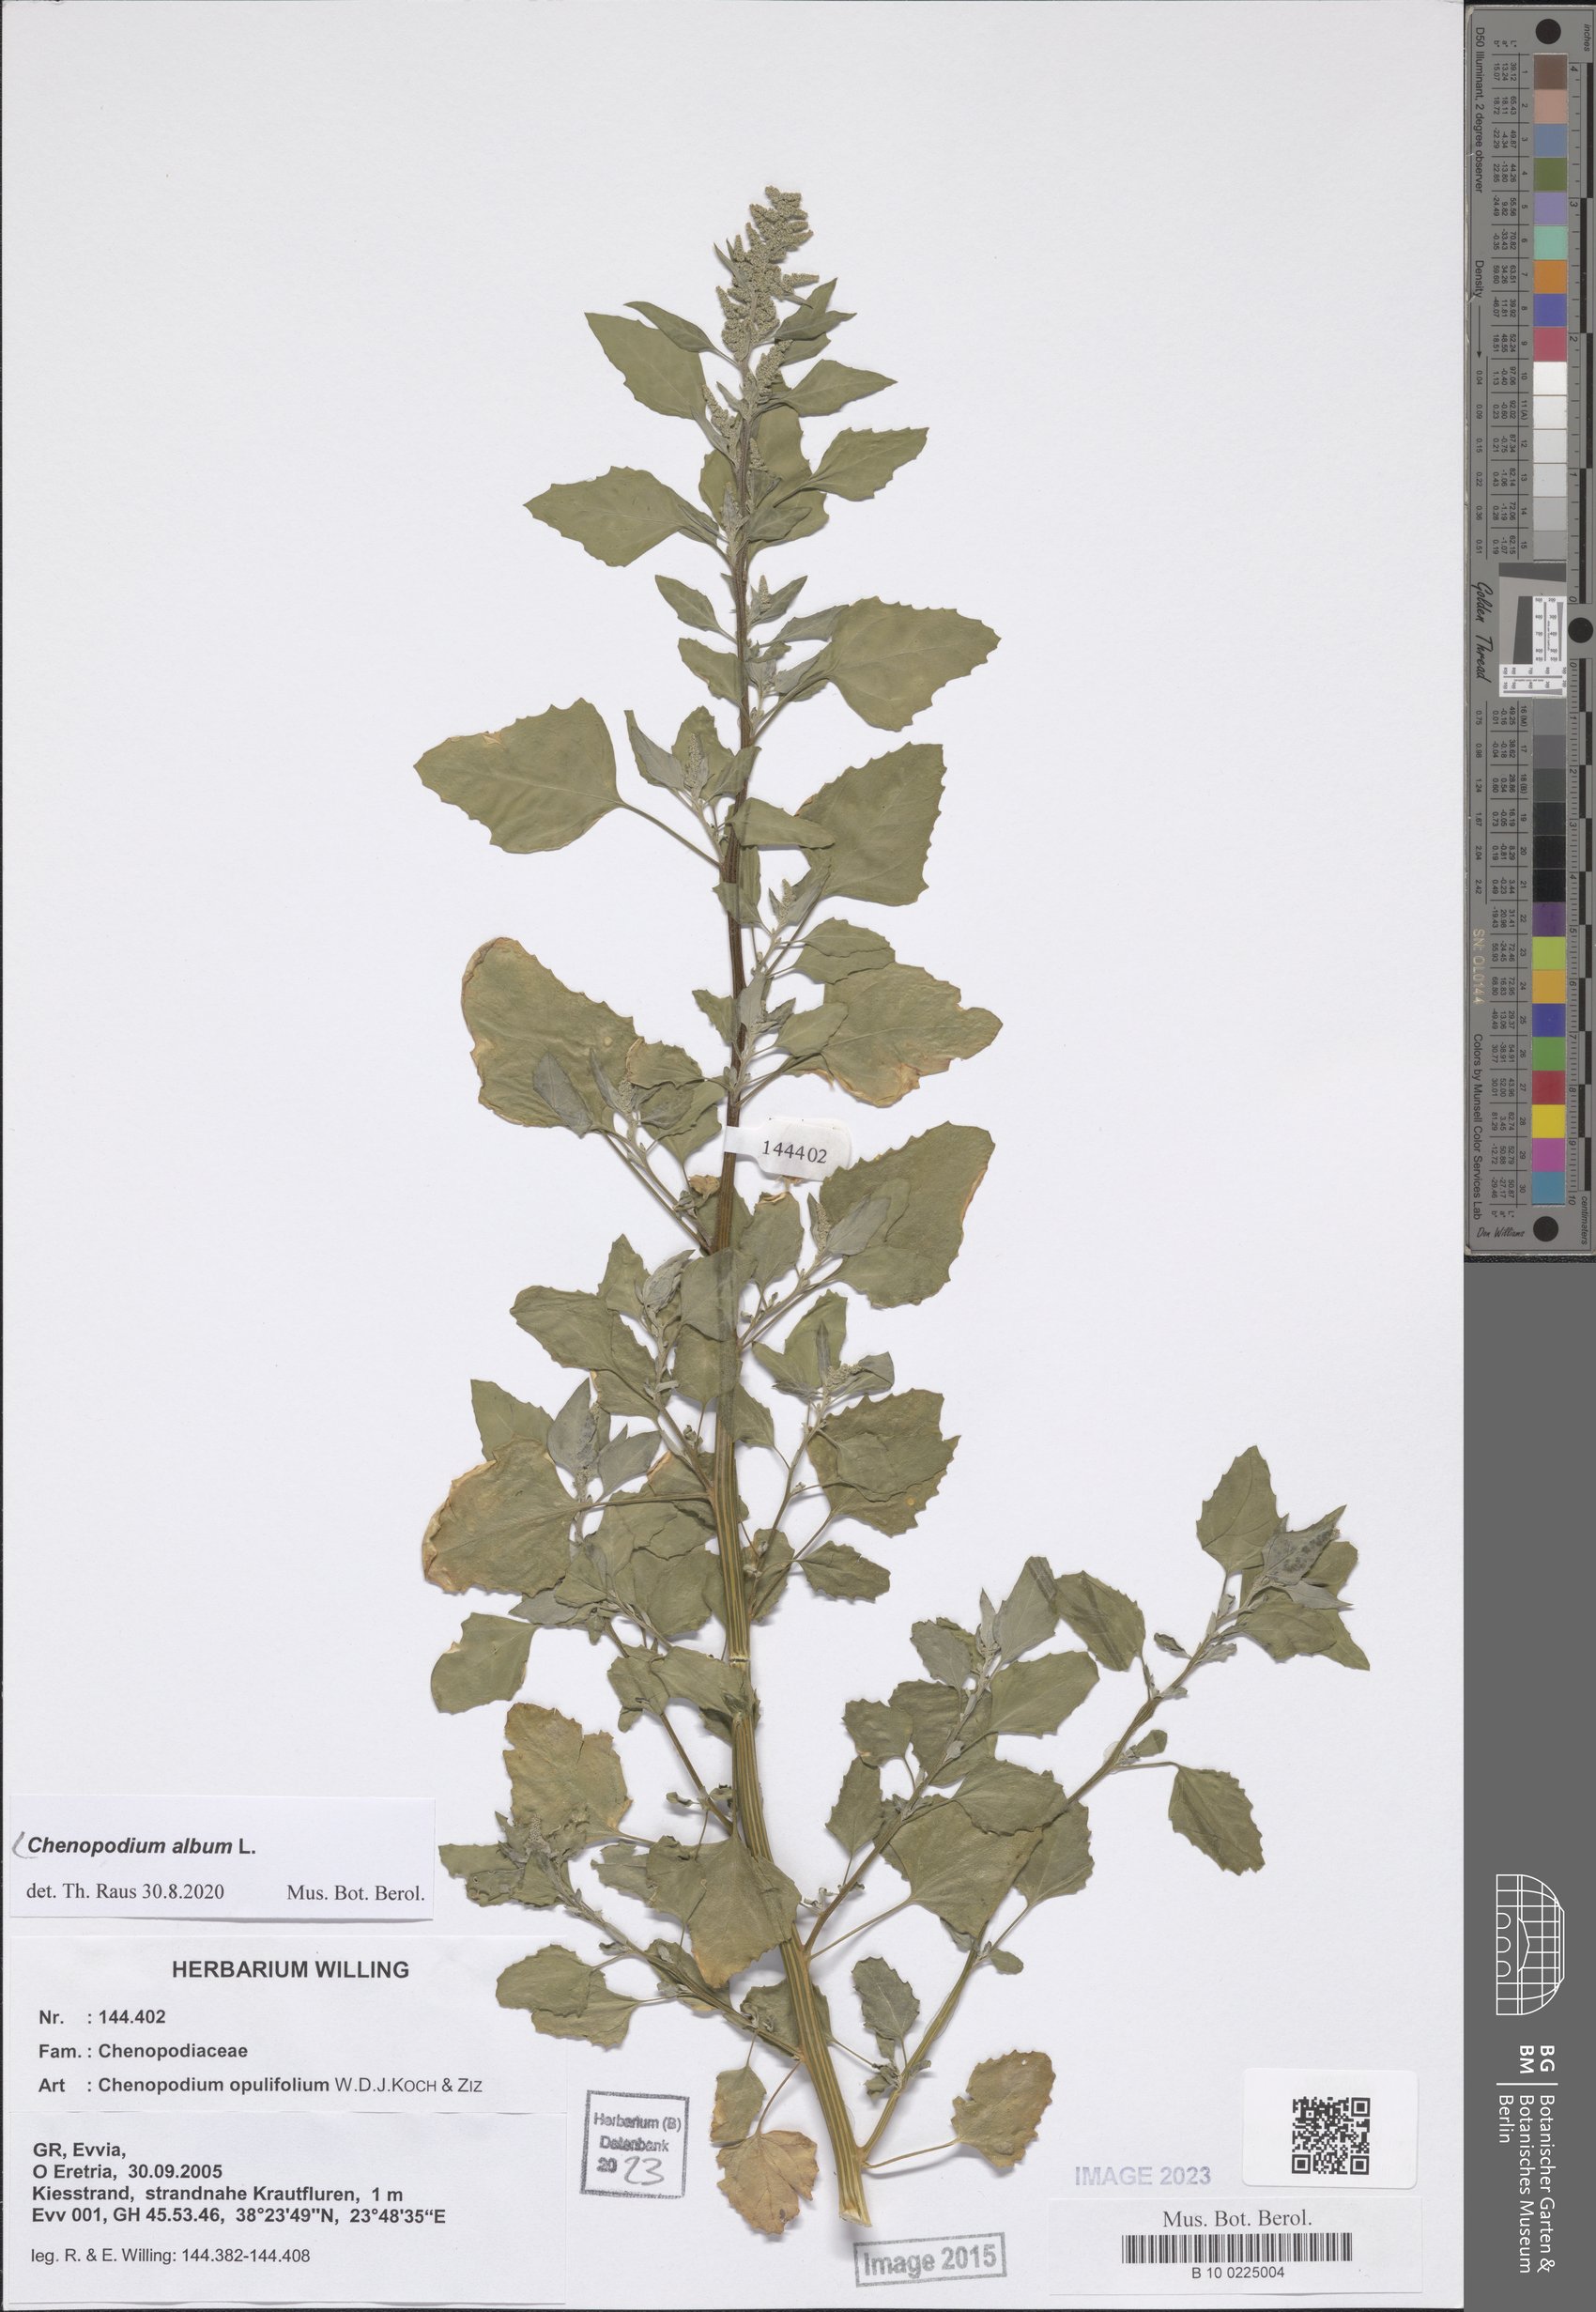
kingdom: Plantae
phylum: Tracheophyta
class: Magnoliopsida
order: Caryophyllales
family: Amaranthaceae
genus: Chenopodium
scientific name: Chenopodium album
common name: Fat-hen
